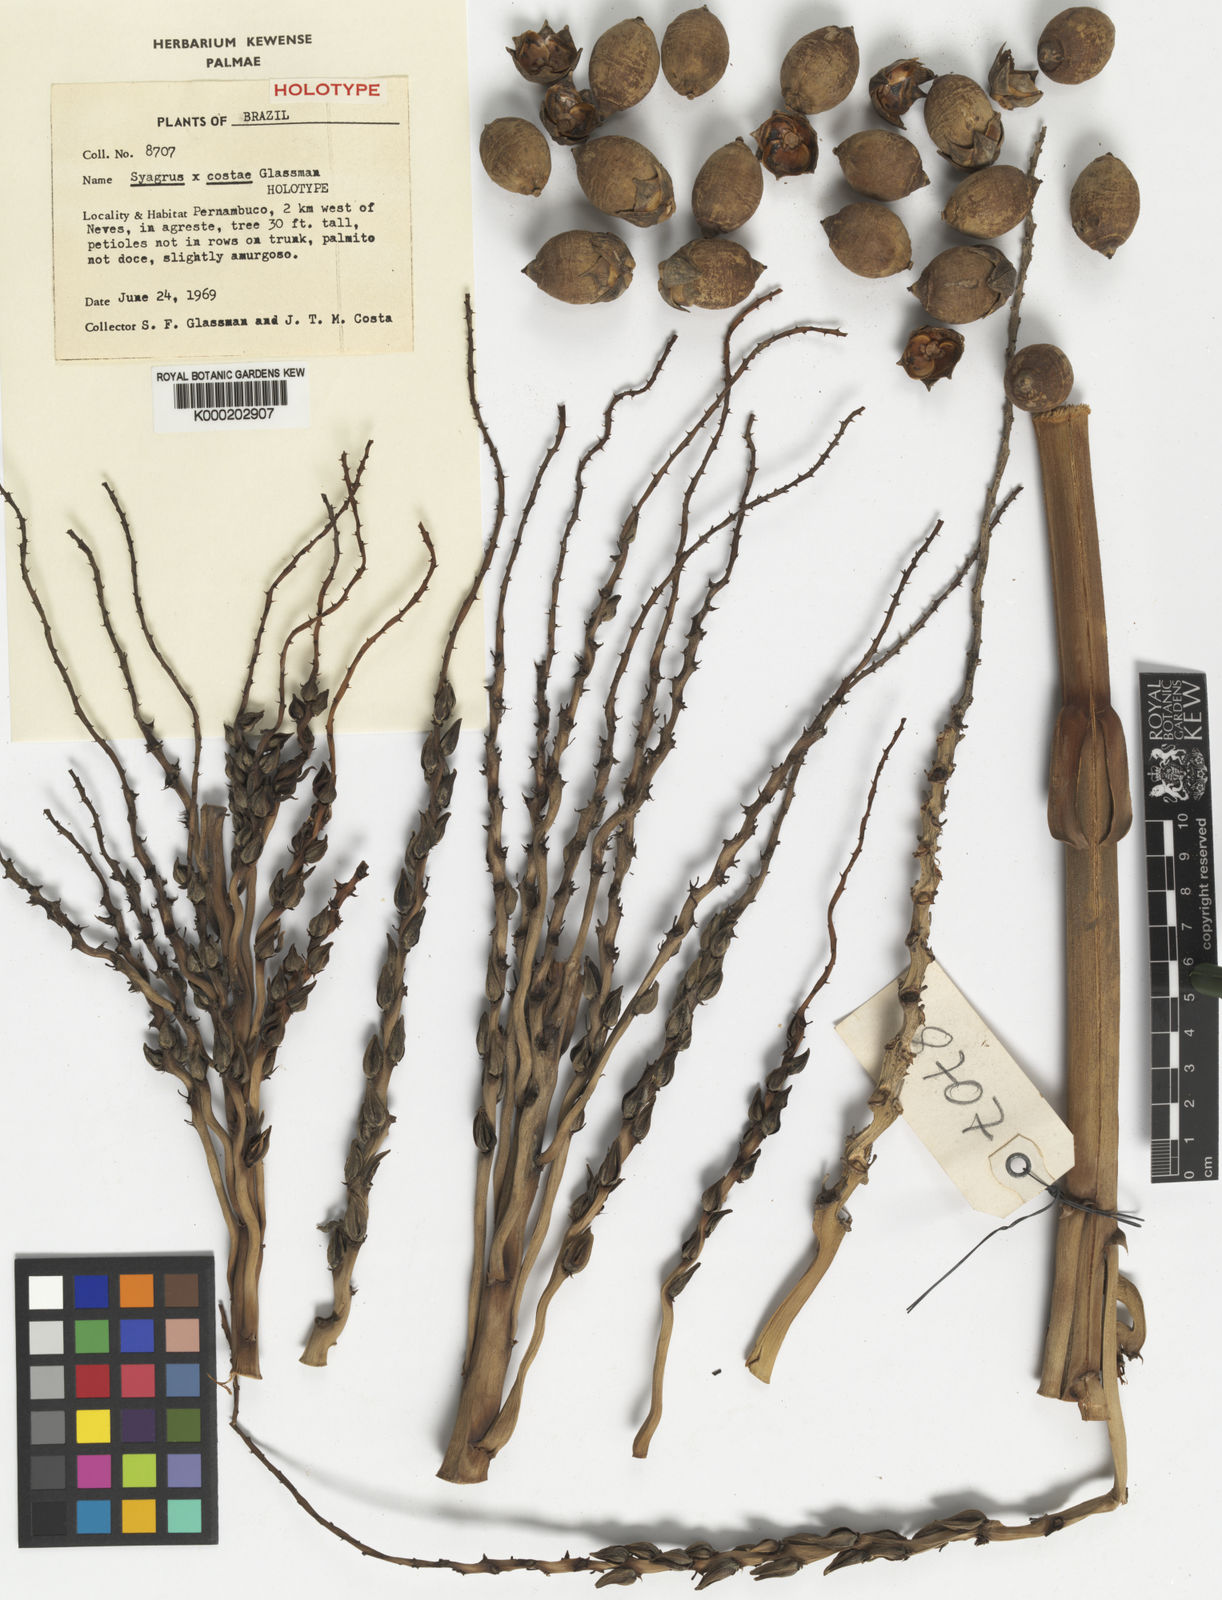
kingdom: Plantae
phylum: Tracheophyta
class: Liliopsida
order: Arecales
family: Arecaceae
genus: Syagrus
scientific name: Syagrus costae
